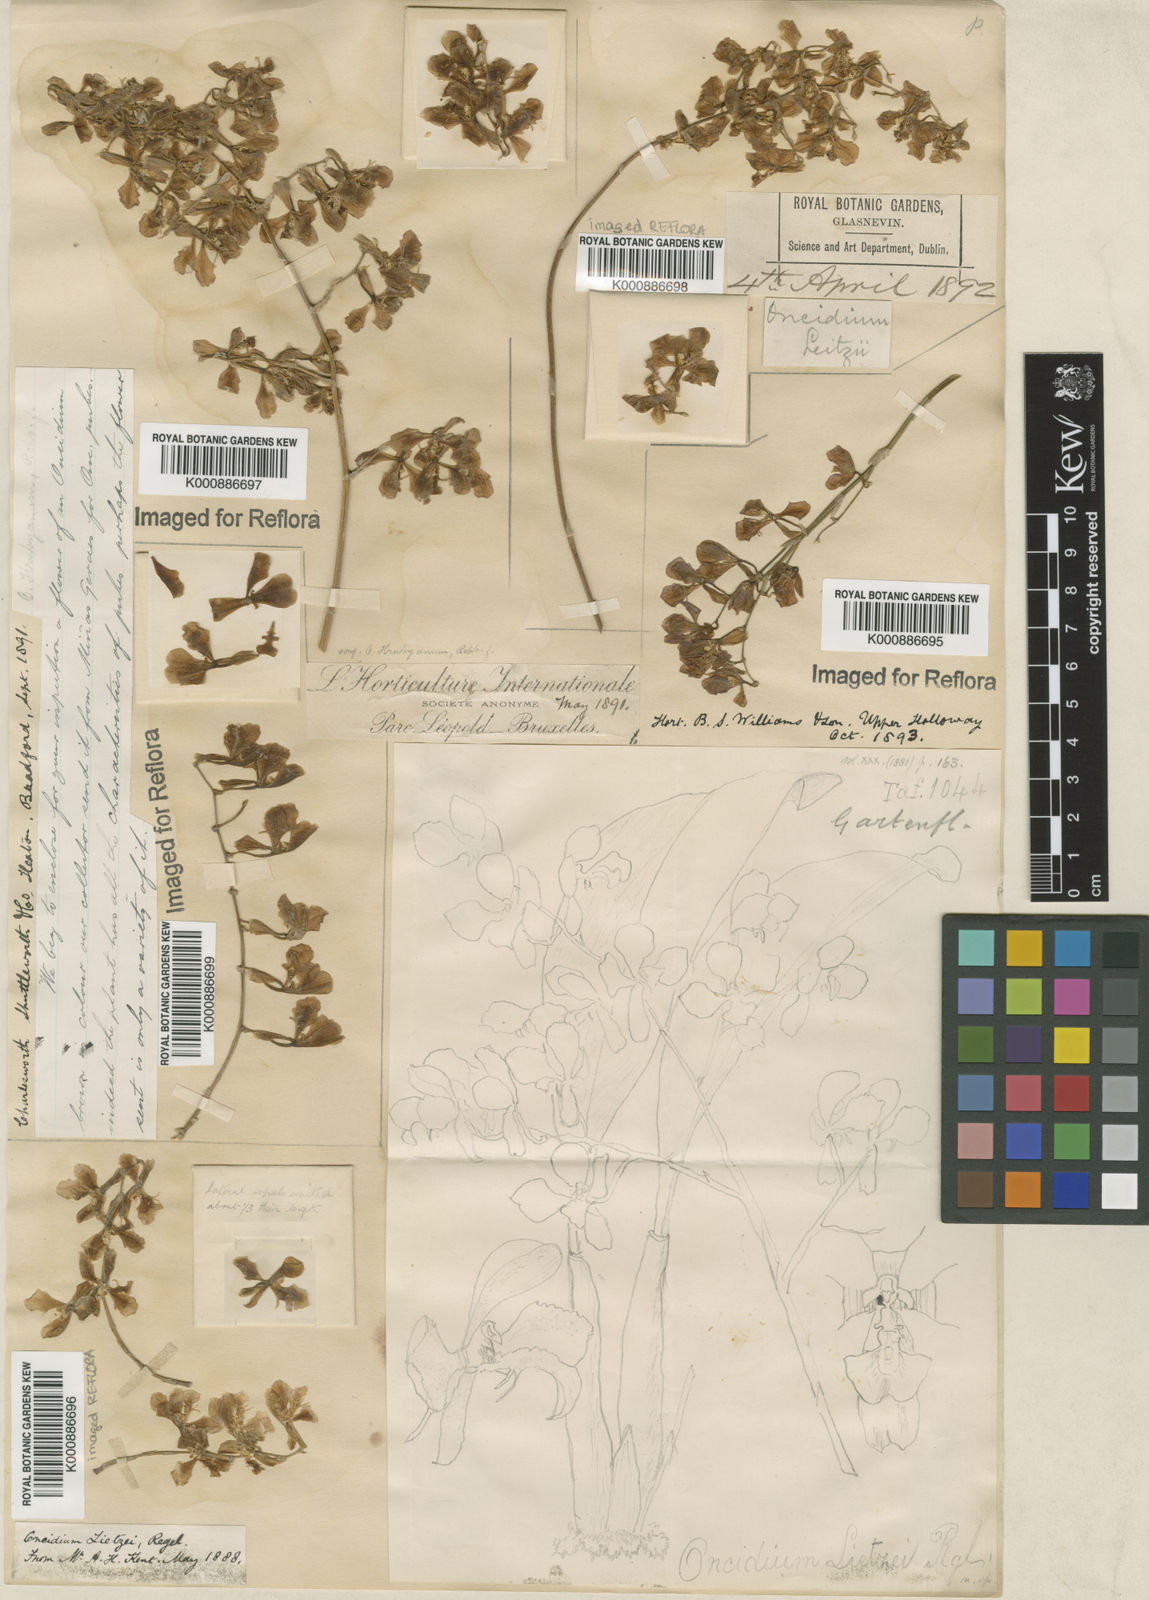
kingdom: Plantae
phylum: Tracheophyta
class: Liliopsida
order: Asparagales
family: Orchidaceae
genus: Gomesa
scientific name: Gomesa lietzei
